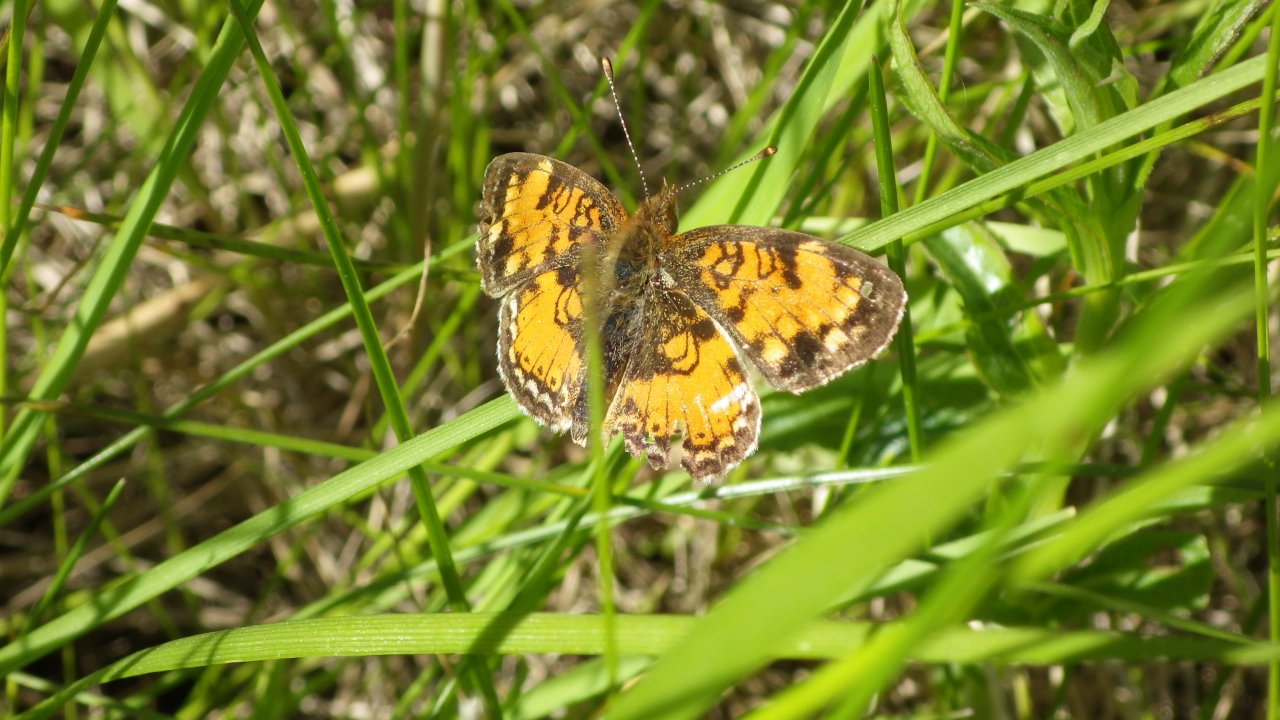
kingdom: Animalia
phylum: Arthropoda
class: Insecta
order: Lepidoptera
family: Nymphalidae
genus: Phyciodes
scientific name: Phyciodes tharos
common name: Northern Crescent
